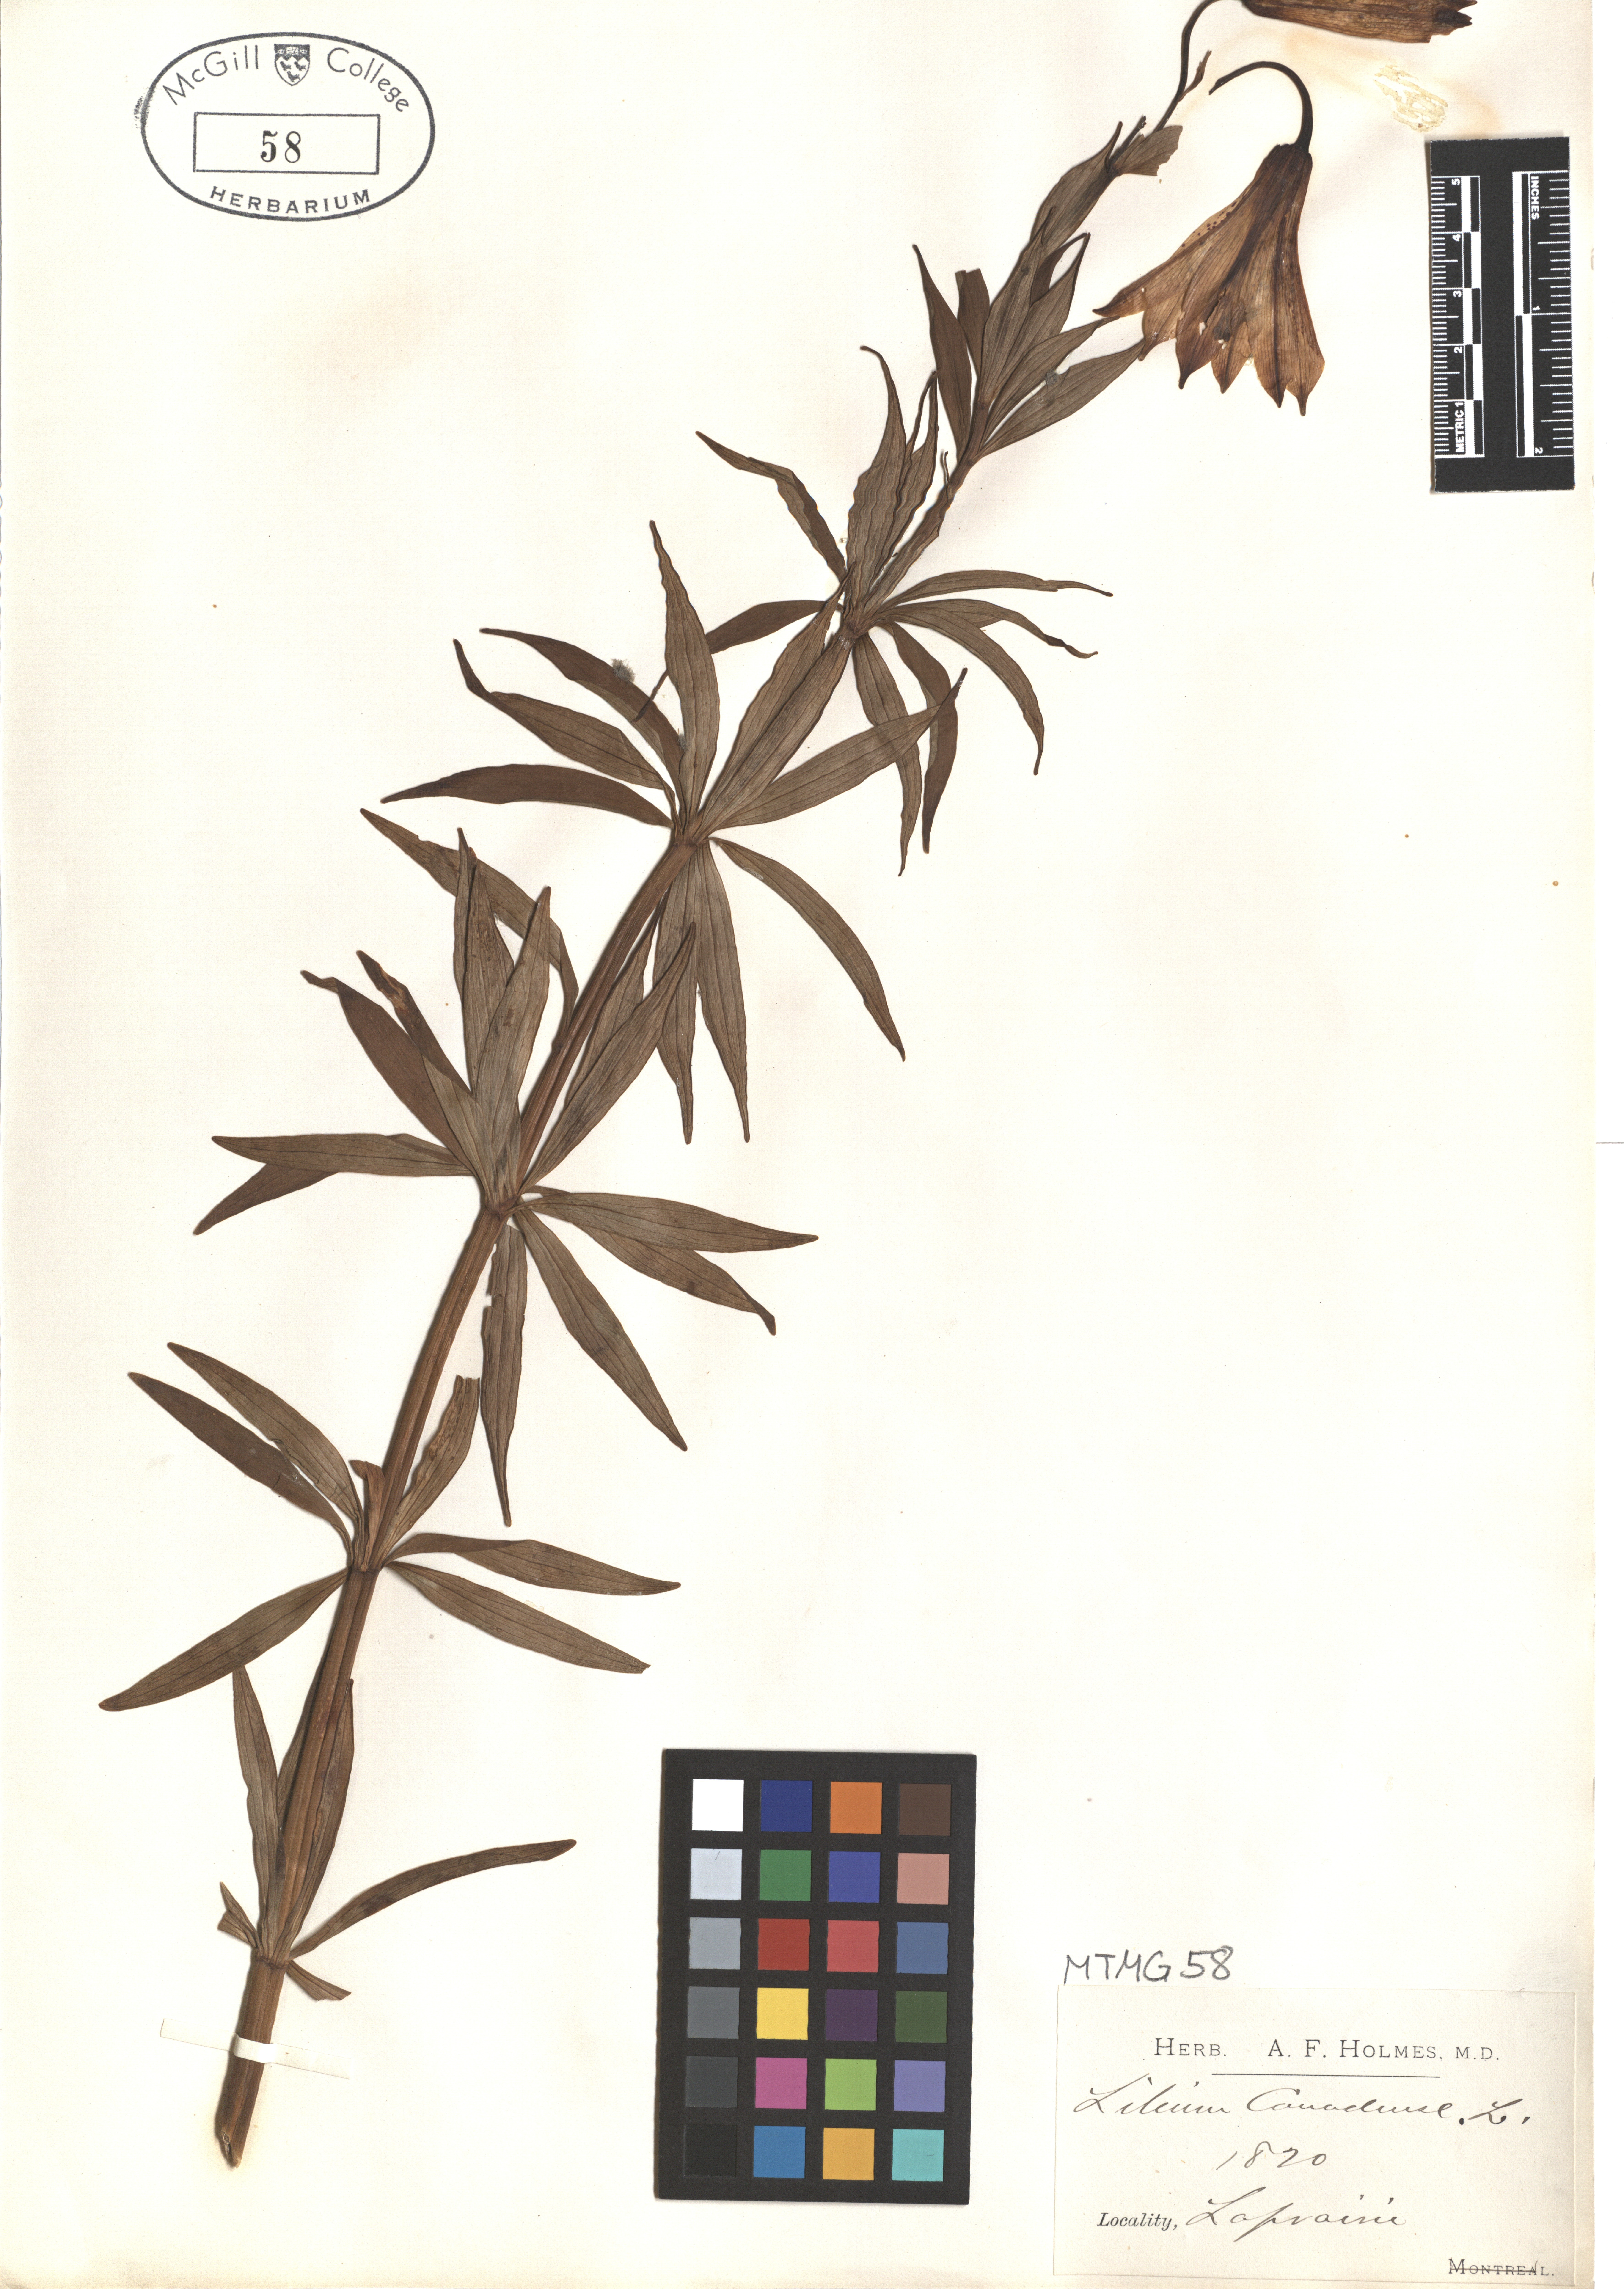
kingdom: Plantae
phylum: Tracheophyta
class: Liliopsida
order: Liliales
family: Liliaceae
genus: Lilium
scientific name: Lilium canadense
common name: Canada lily
